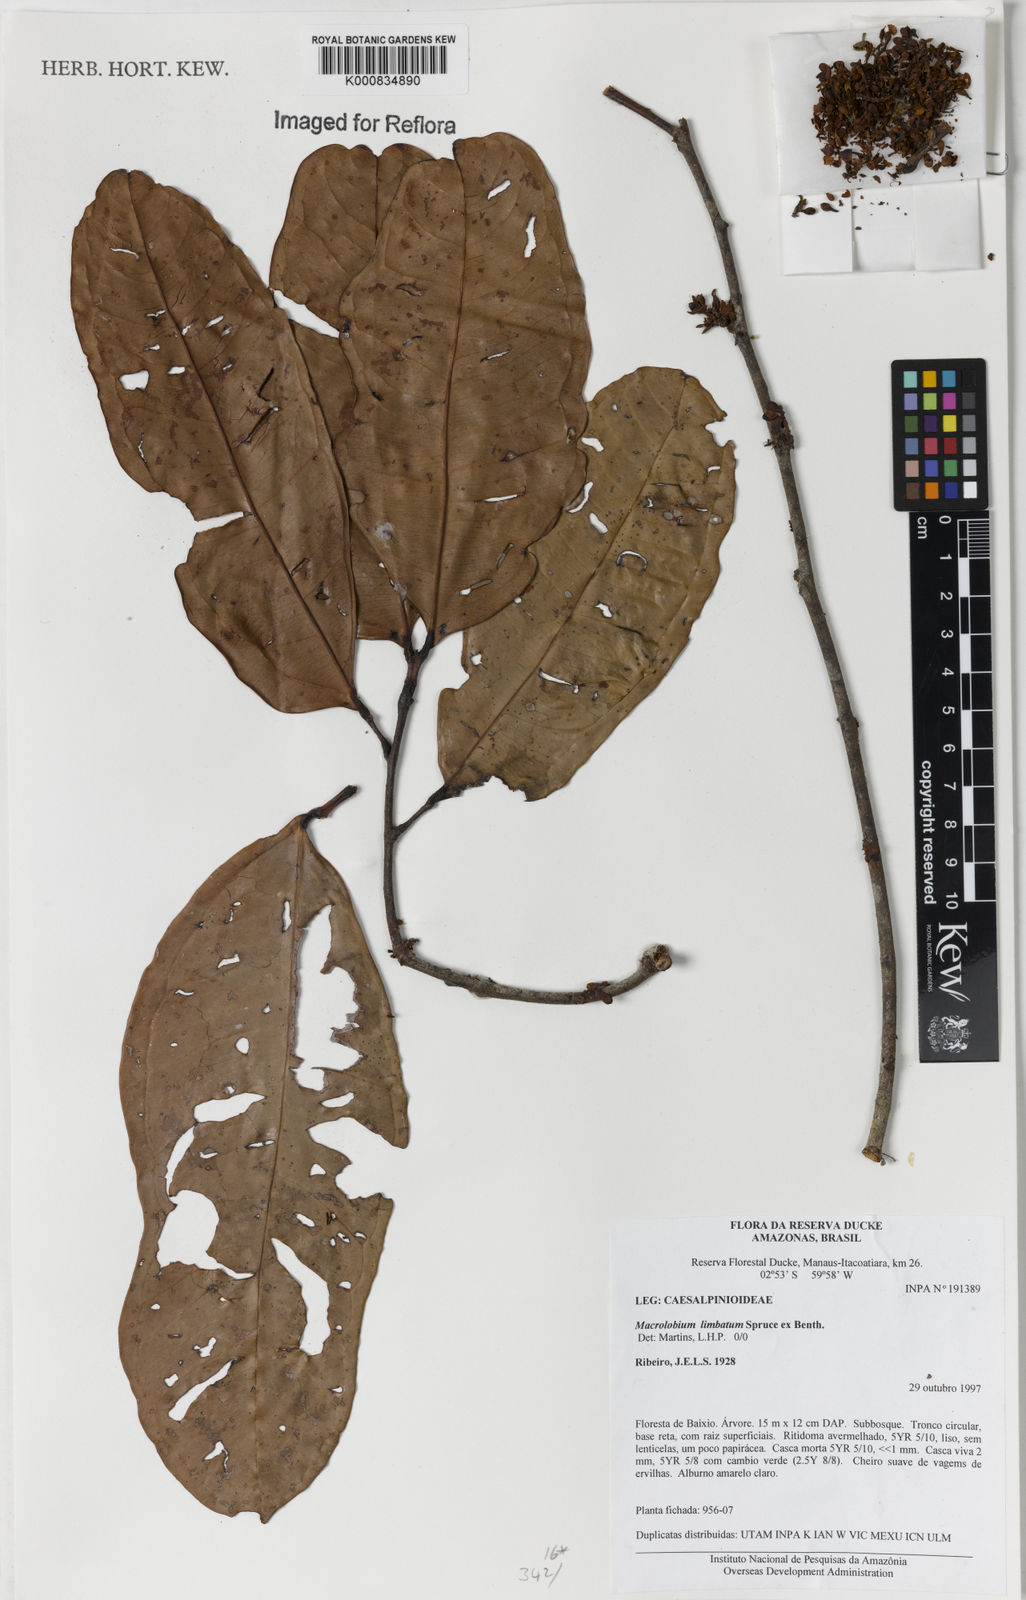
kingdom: Plantae
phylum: Tracheophyta
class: Magnoliopsida
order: Fabales
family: Fabaceae
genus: Macrolobium
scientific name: Macrolobium limbatum
